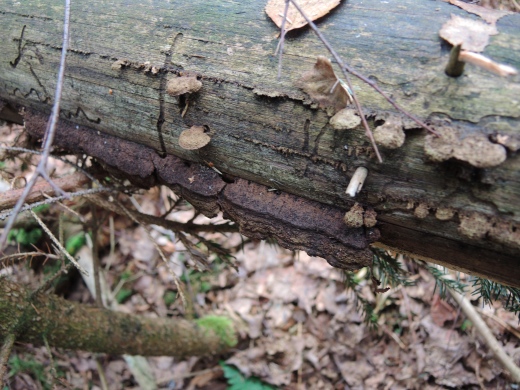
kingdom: Fungi
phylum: Basidiomycota
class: Agaricomycetes
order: Gloeophyllales
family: Gloeophyllaceae
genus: Gloeophyllum
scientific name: Gloeophyllum abietinum
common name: gran-korkhat
